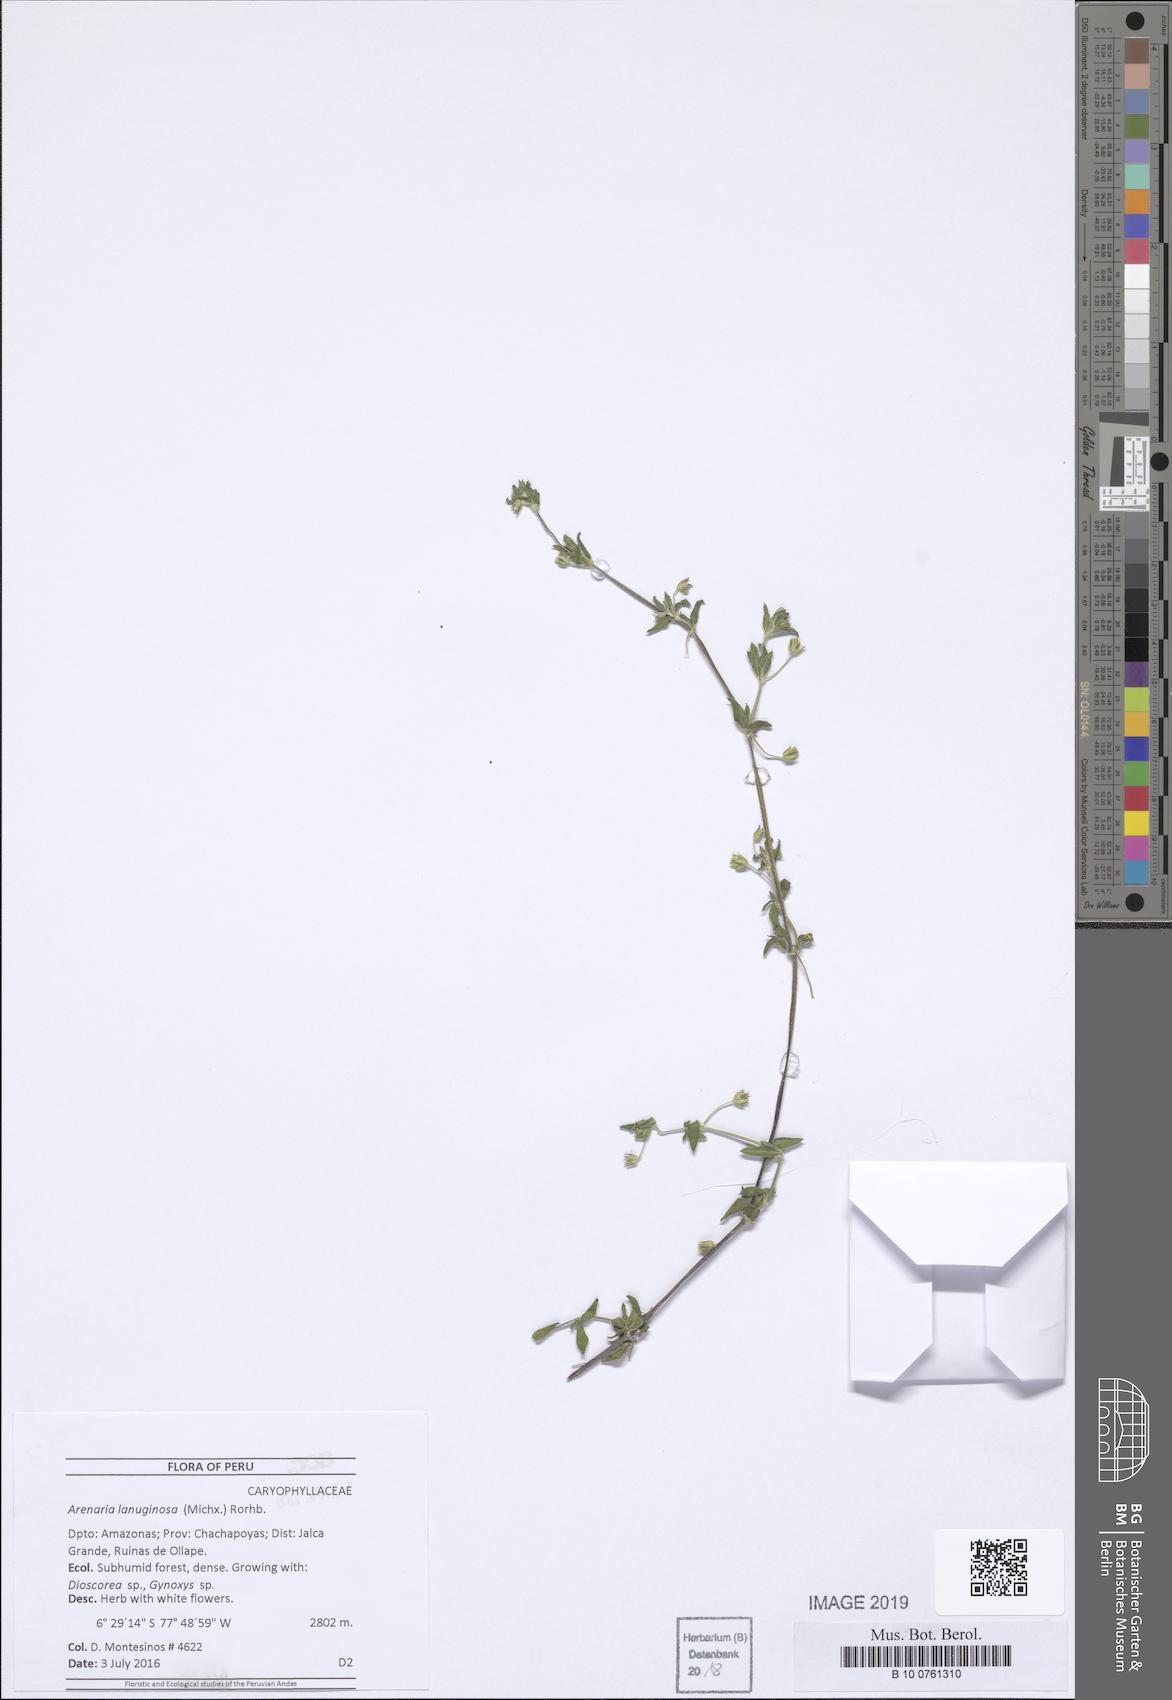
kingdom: Plantae
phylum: Tracheophyta
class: Magnoliopsida
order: Caryophyllales
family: Caryophyllaceae
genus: Arenaria
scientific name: Arenaria lanuginosa
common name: Spread sandwort
